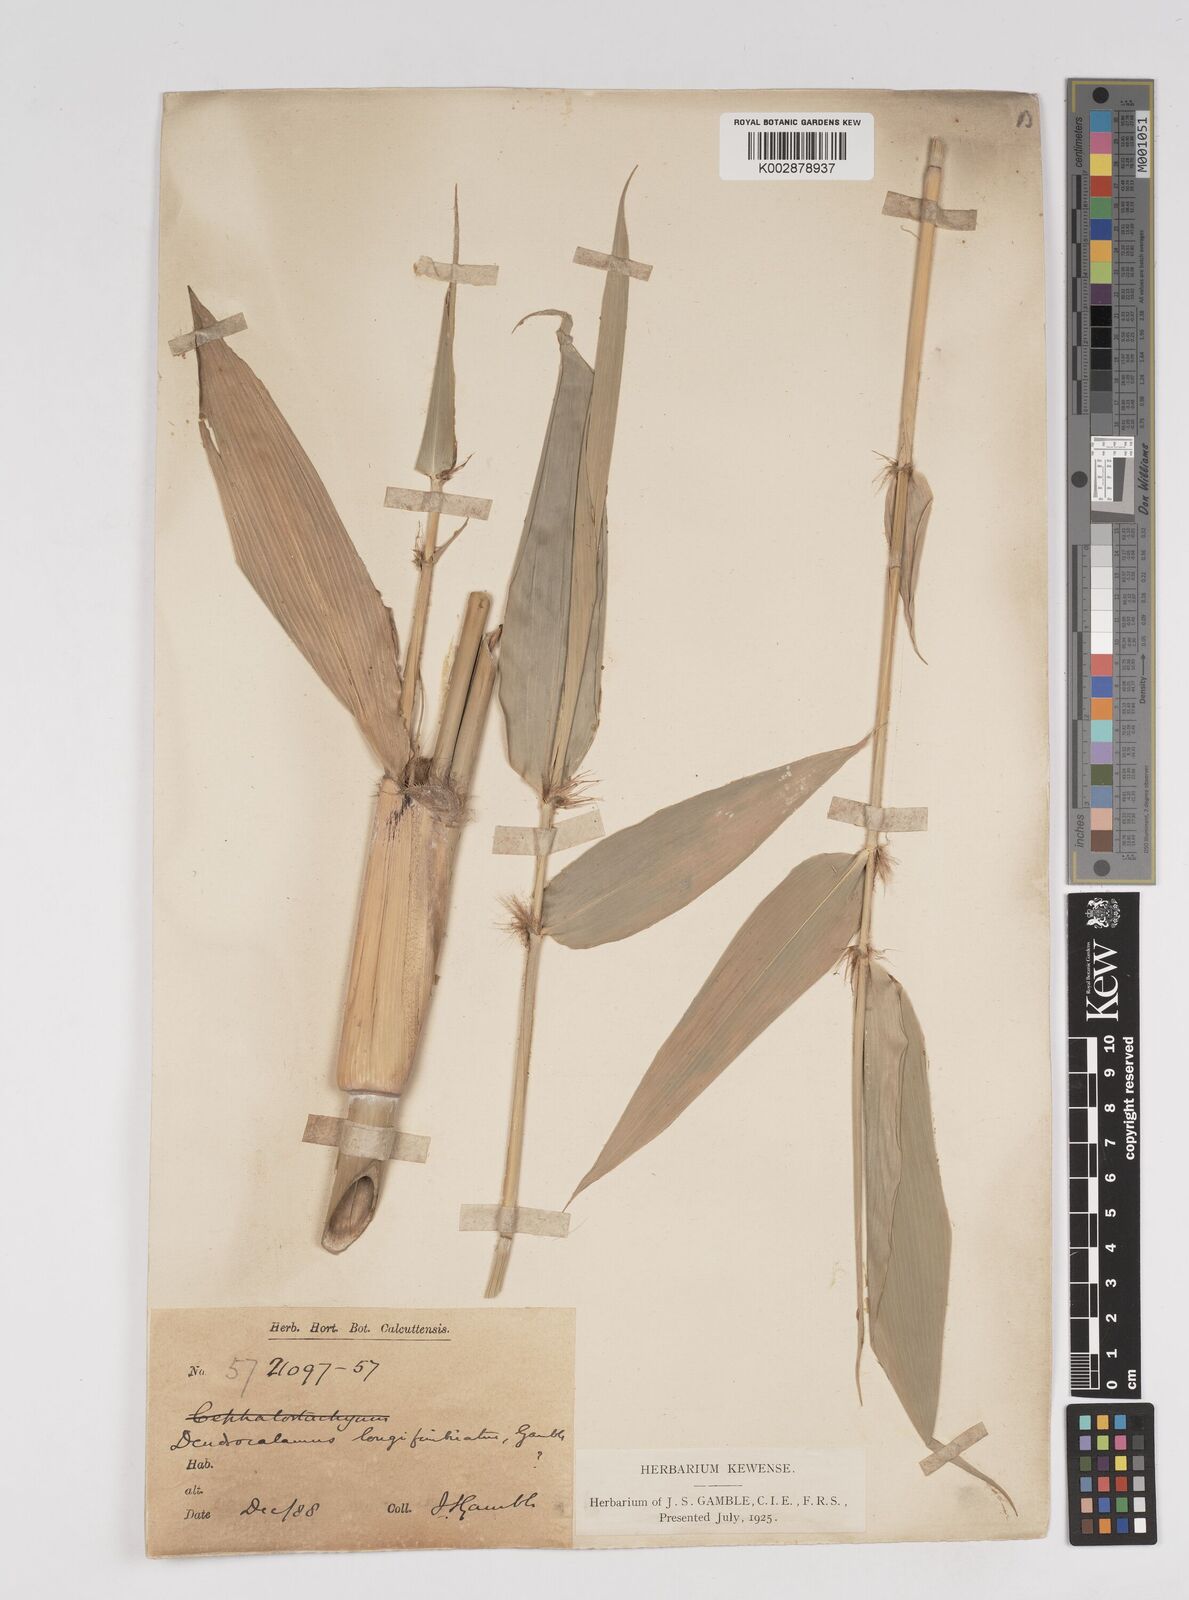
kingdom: Plantae
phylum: Tracheophyta
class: Liliopsida
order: Poales
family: Poaceae
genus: Dendrocalamus
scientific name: Dendrocalamus membranaceus
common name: White bamboo
